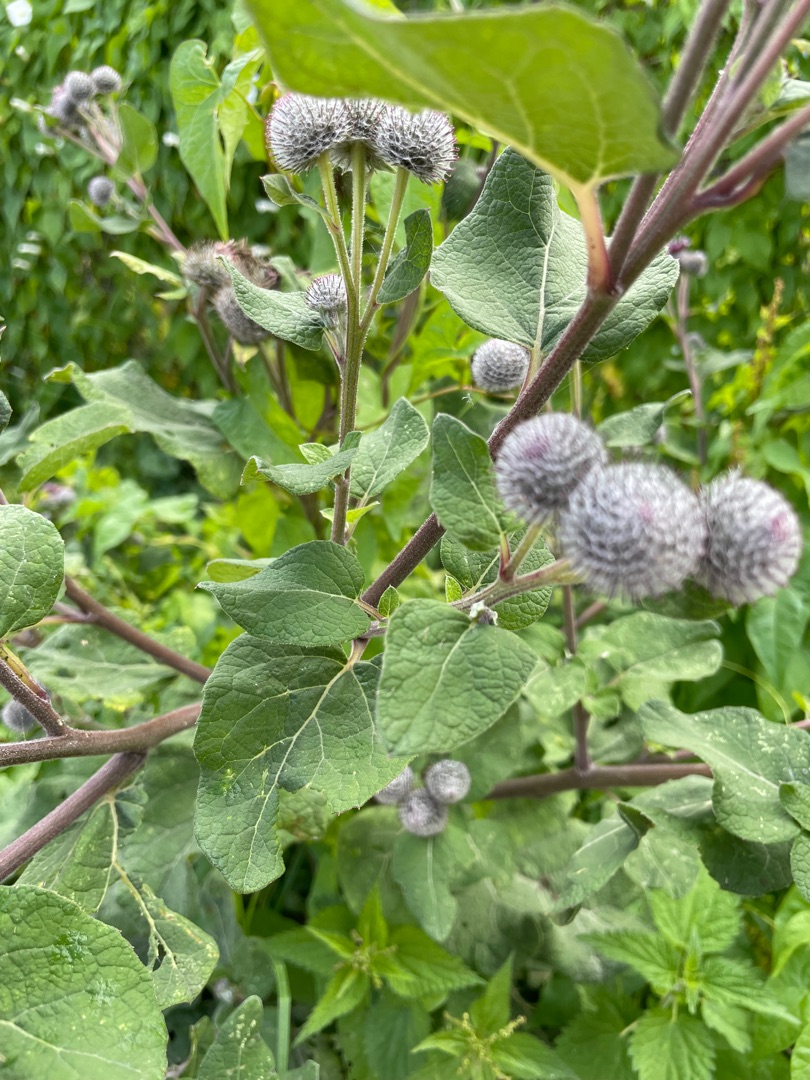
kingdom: Plantae
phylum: Tracheophyta
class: Magnoliopsida
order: Asterales
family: Asteraceae
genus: Arctium
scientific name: Arctium tomentosum
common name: Filtet burre
